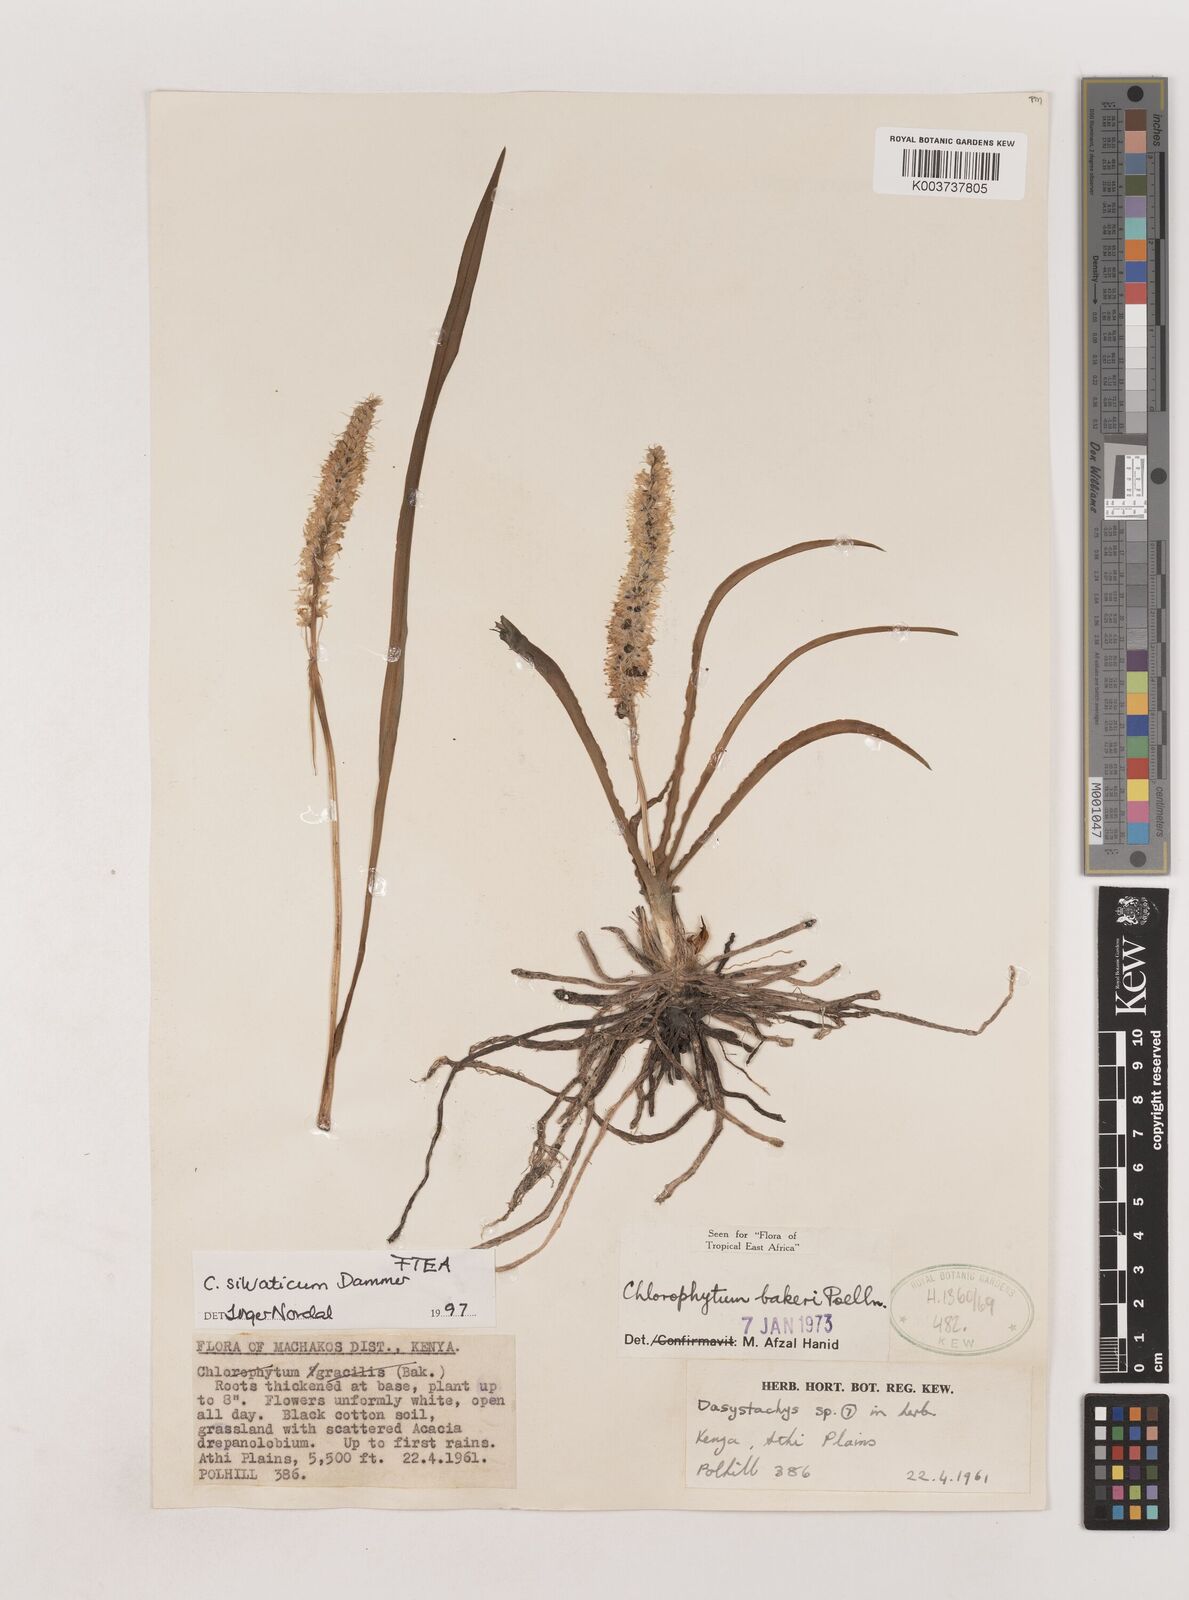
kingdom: Plantae
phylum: Tracheophyta
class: Liliopsida
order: Asparagales
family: Asparagaceae
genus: Chlorophytum
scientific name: Chlorophytum africanum
